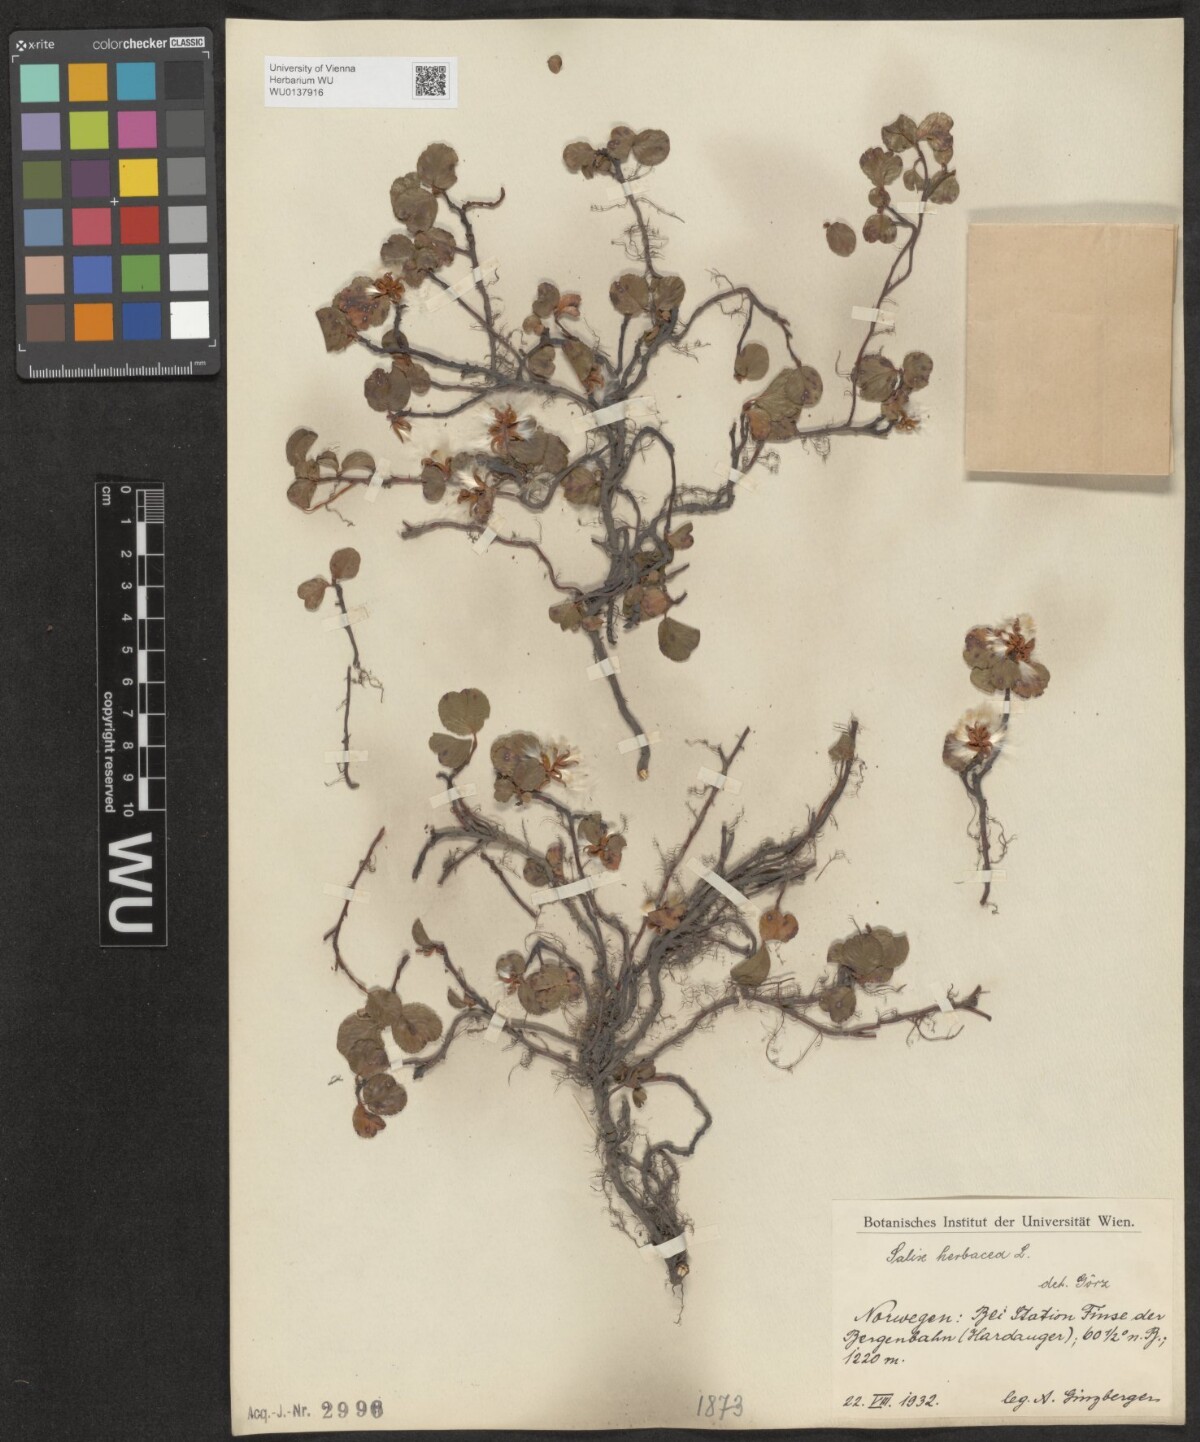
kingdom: Plantae
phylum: Tracheophyta
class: Magnoliopsida
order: Malpighiales
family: Salicaceae
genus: Salix
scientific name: Salix herbacea
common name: Dwarf willow
